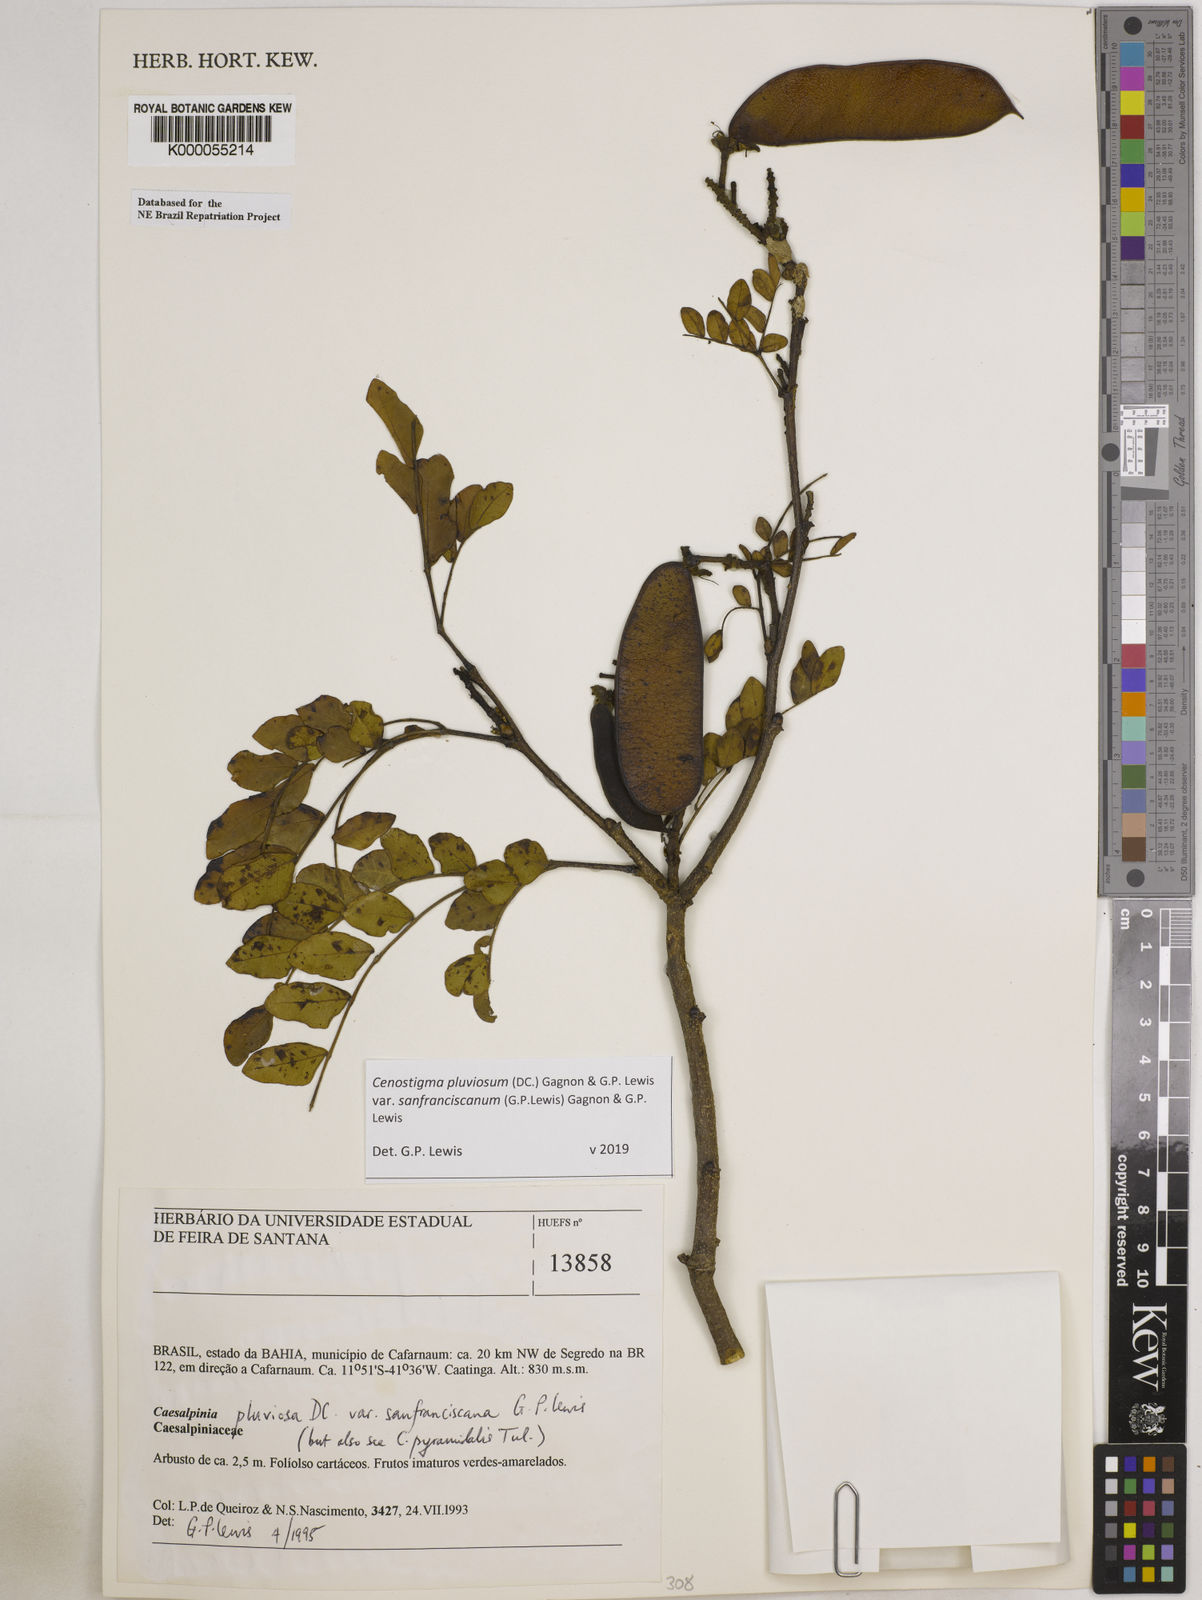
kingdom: Plantae
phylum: Tracheophyta
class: Magnoliopsida
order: Fabales
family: Fabaceae
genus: Cenostigma
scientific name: Cenostigma pluviosum
